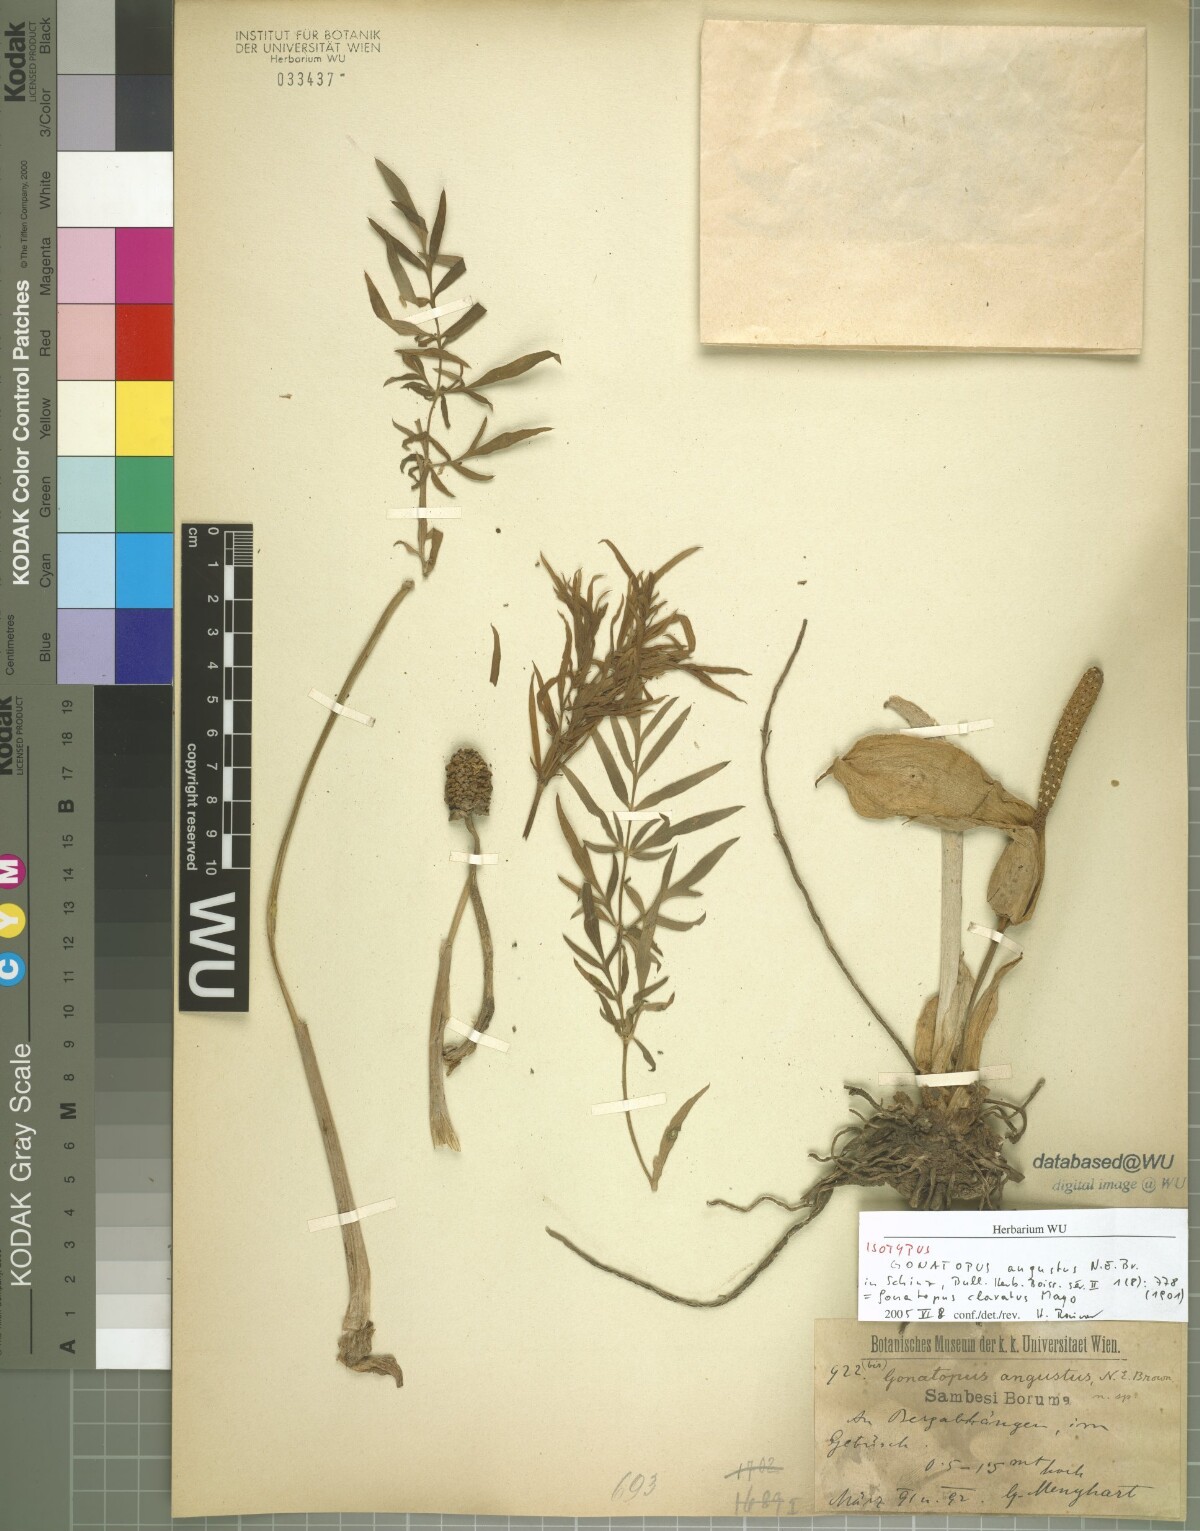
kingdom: Plantae
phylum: Tracheophyta
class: Liliopsida
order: Alismatales
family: Araceae
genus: Gonatopus
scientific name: Gonatopus angustus
